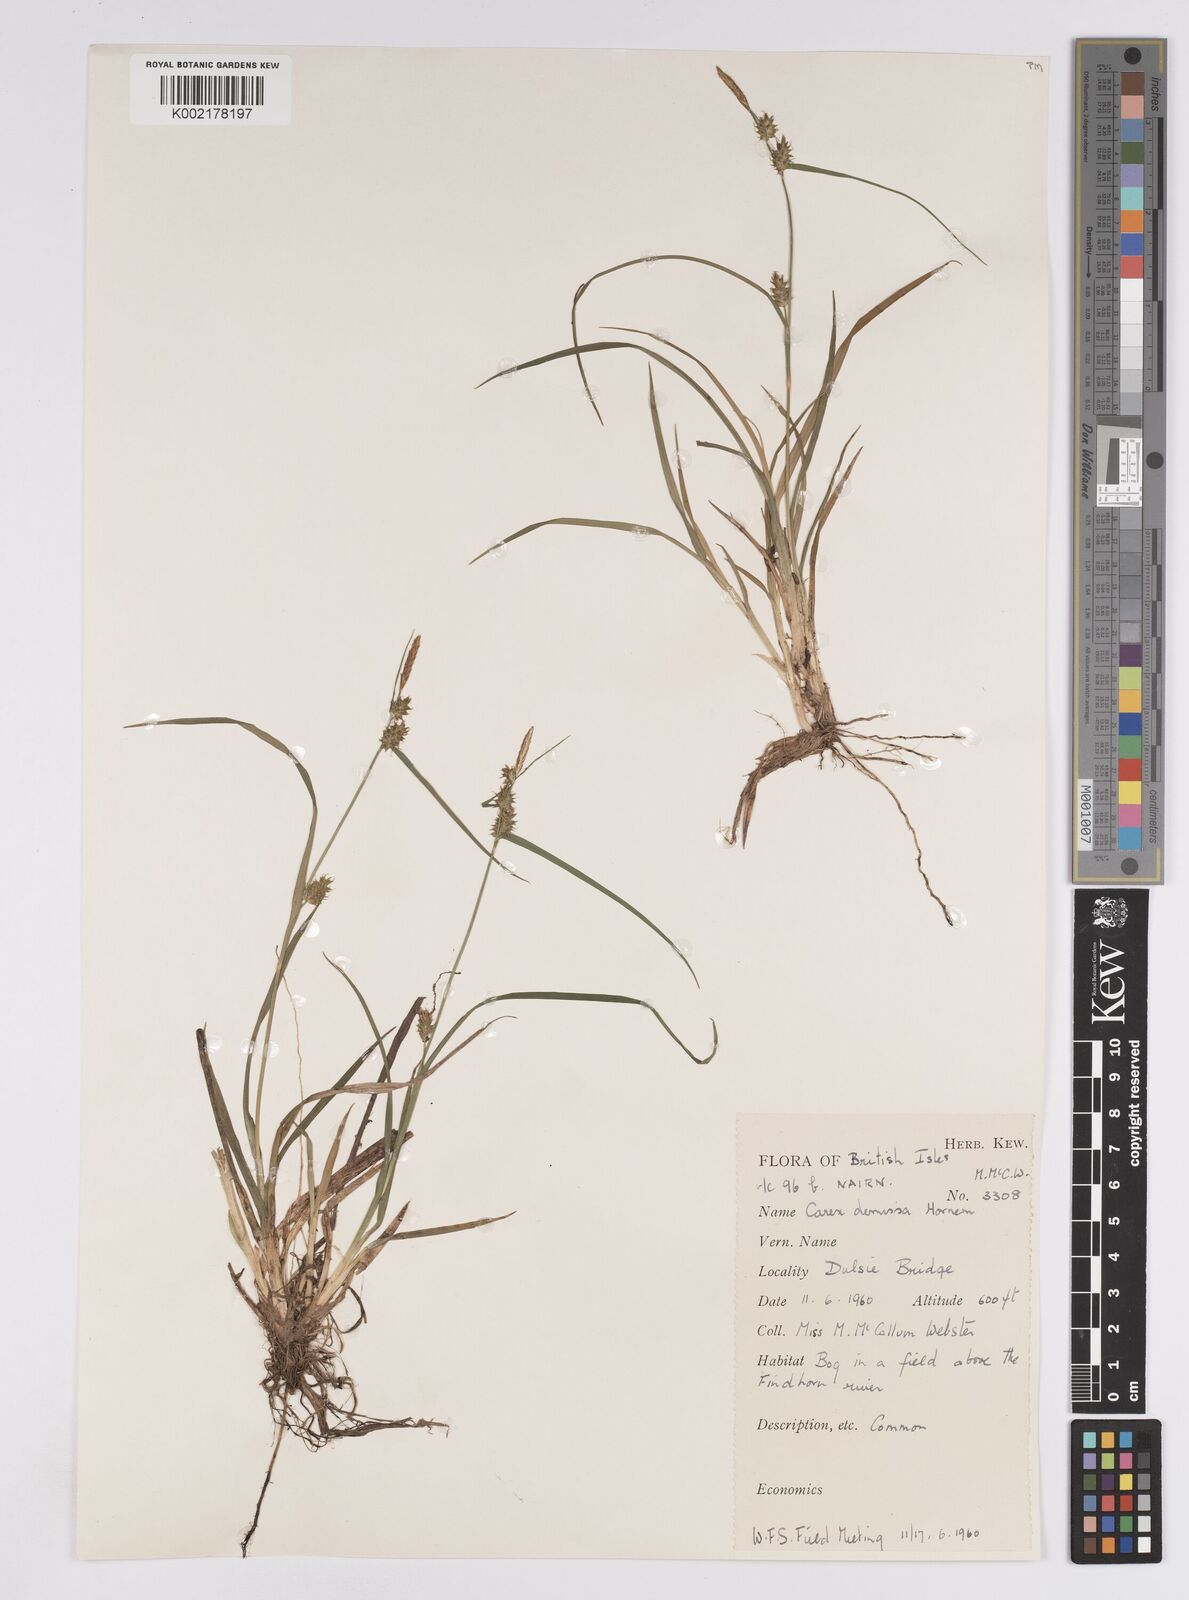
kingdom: Plantae
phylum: Tracheophyta
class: Liliopsida
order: Poales
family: Cyperaceae
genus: Carex
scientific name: Carex demissa
